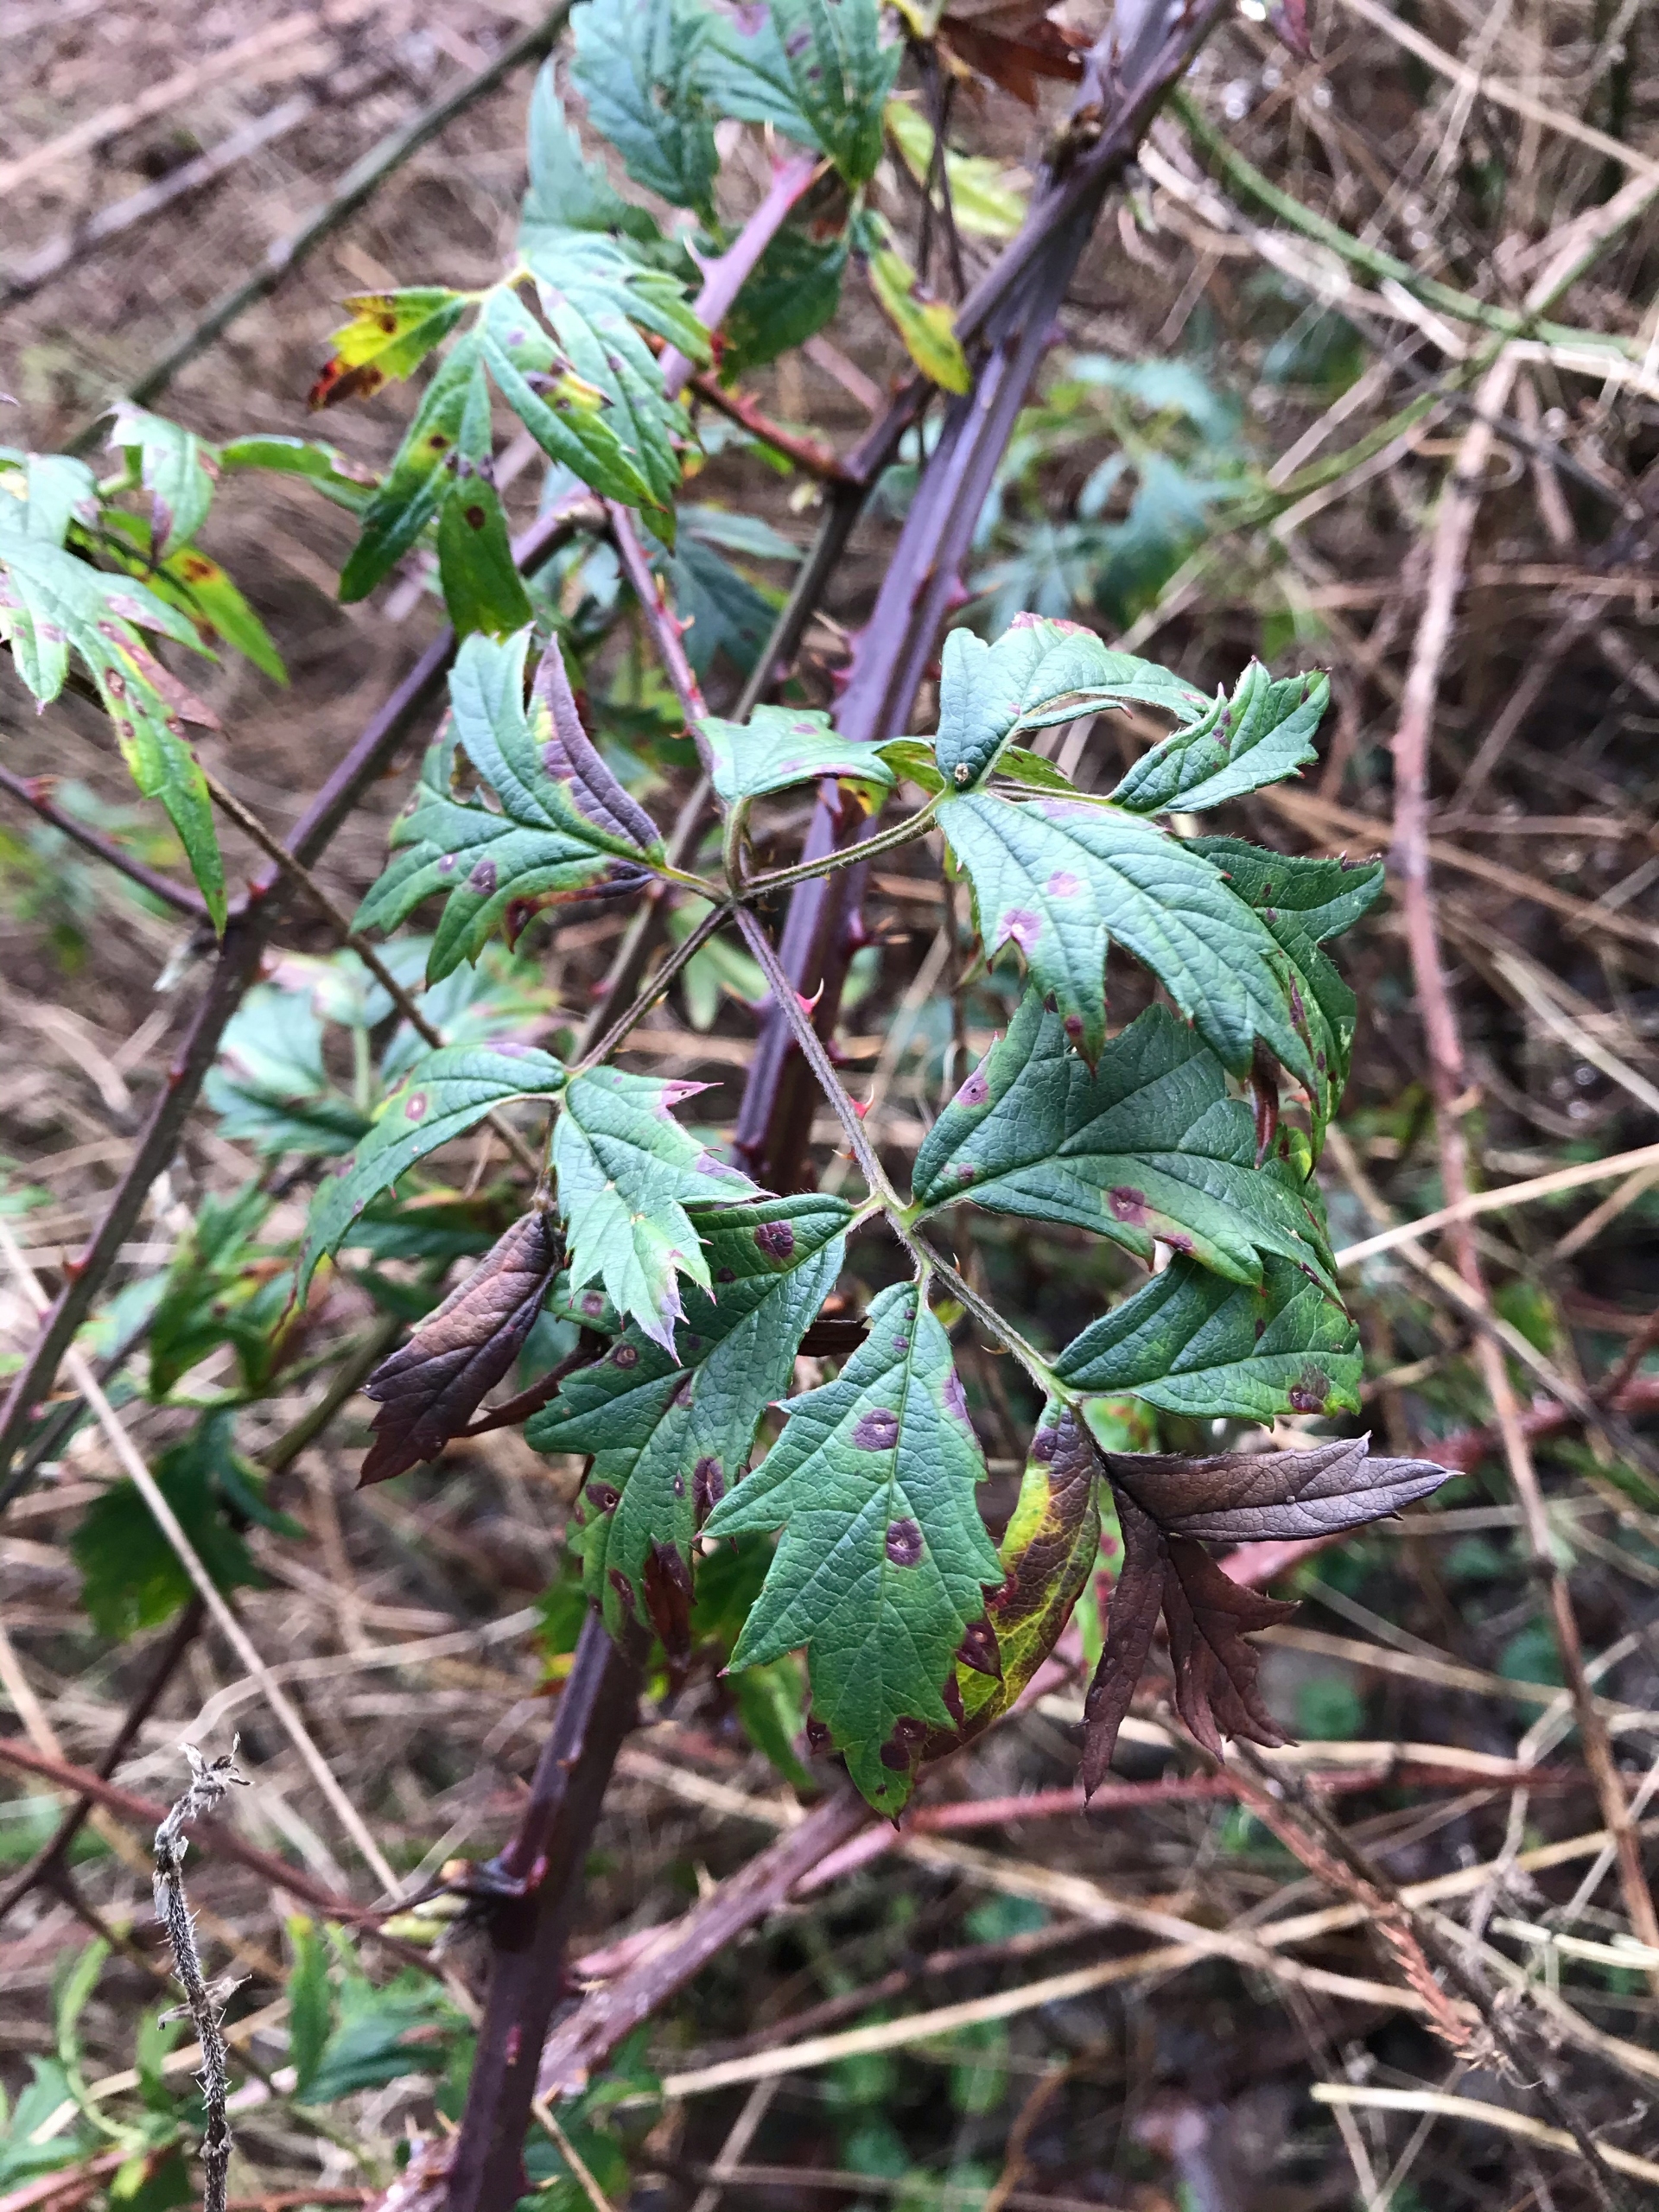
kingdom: Plantae
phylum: Tracheophyta
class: Magnoliopsida
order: Rosales
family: Rosaceae
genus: Rubus
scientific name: Rubus laciniatus
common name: Fliget brombær
